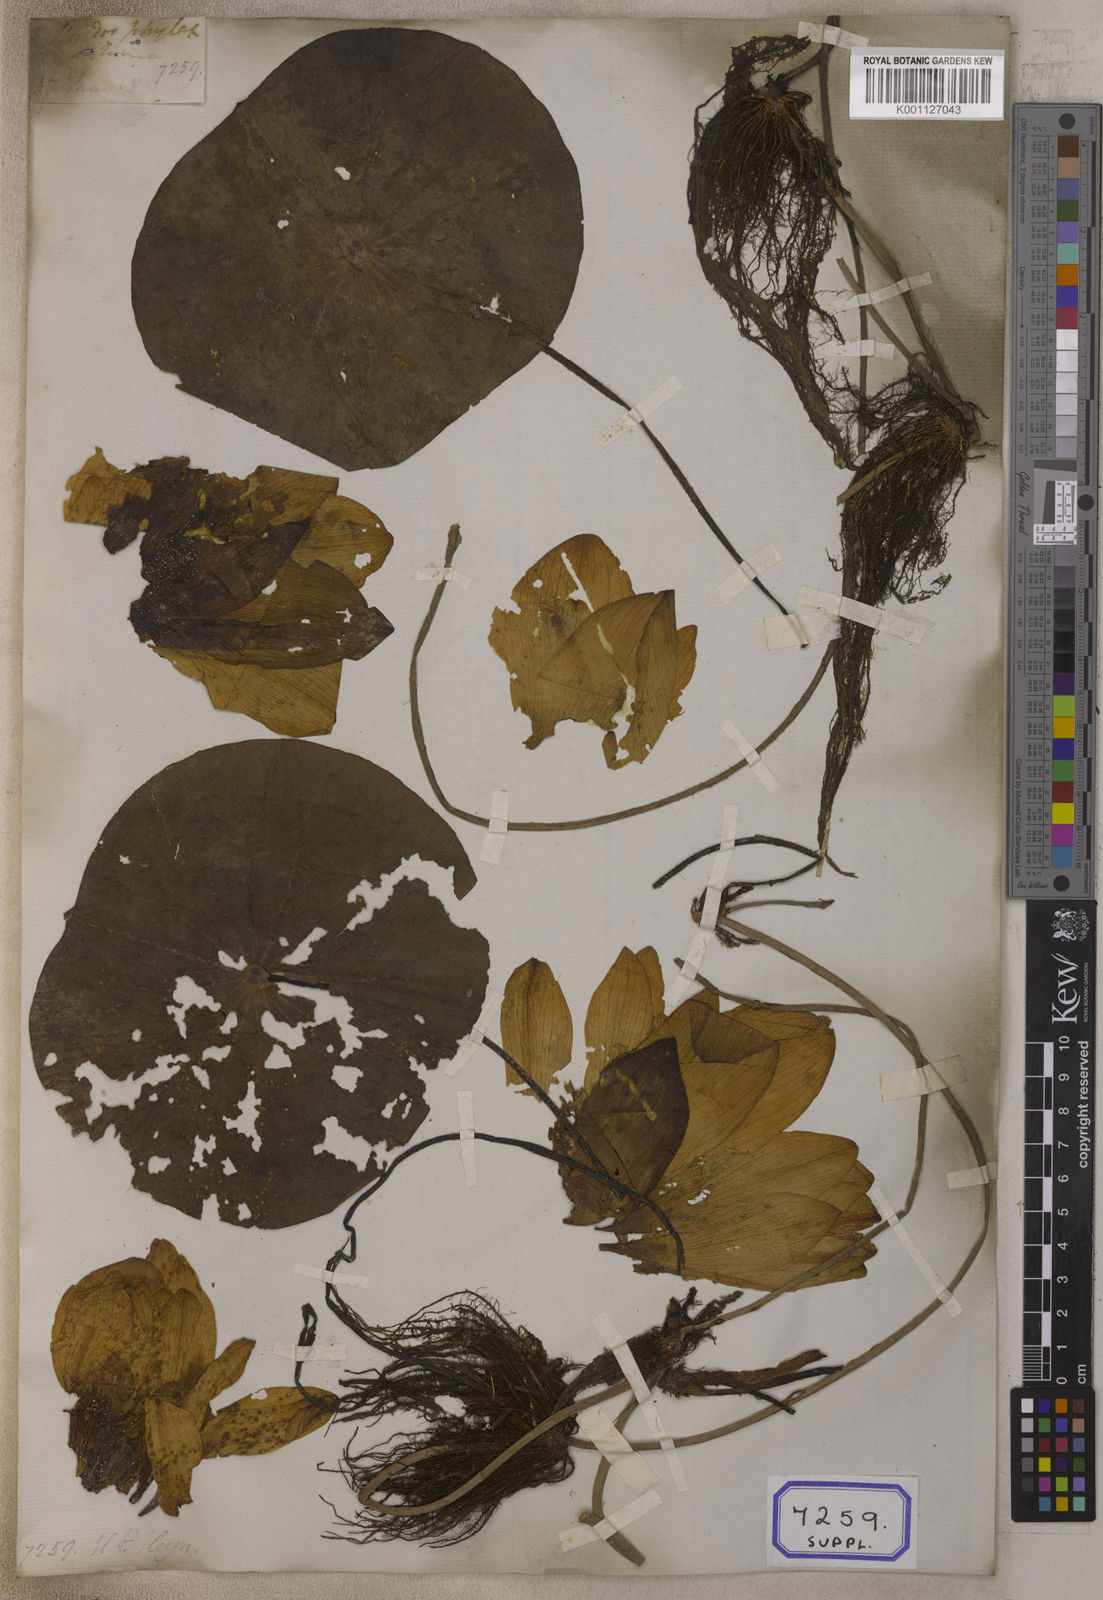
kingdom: Plantae
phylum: Tracheophyta
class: Magnoliopsida
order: Proteales
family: Nelumbonaceae
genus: Nelumbo
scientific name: Nelumbo nucifera
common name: Sacred lotus
